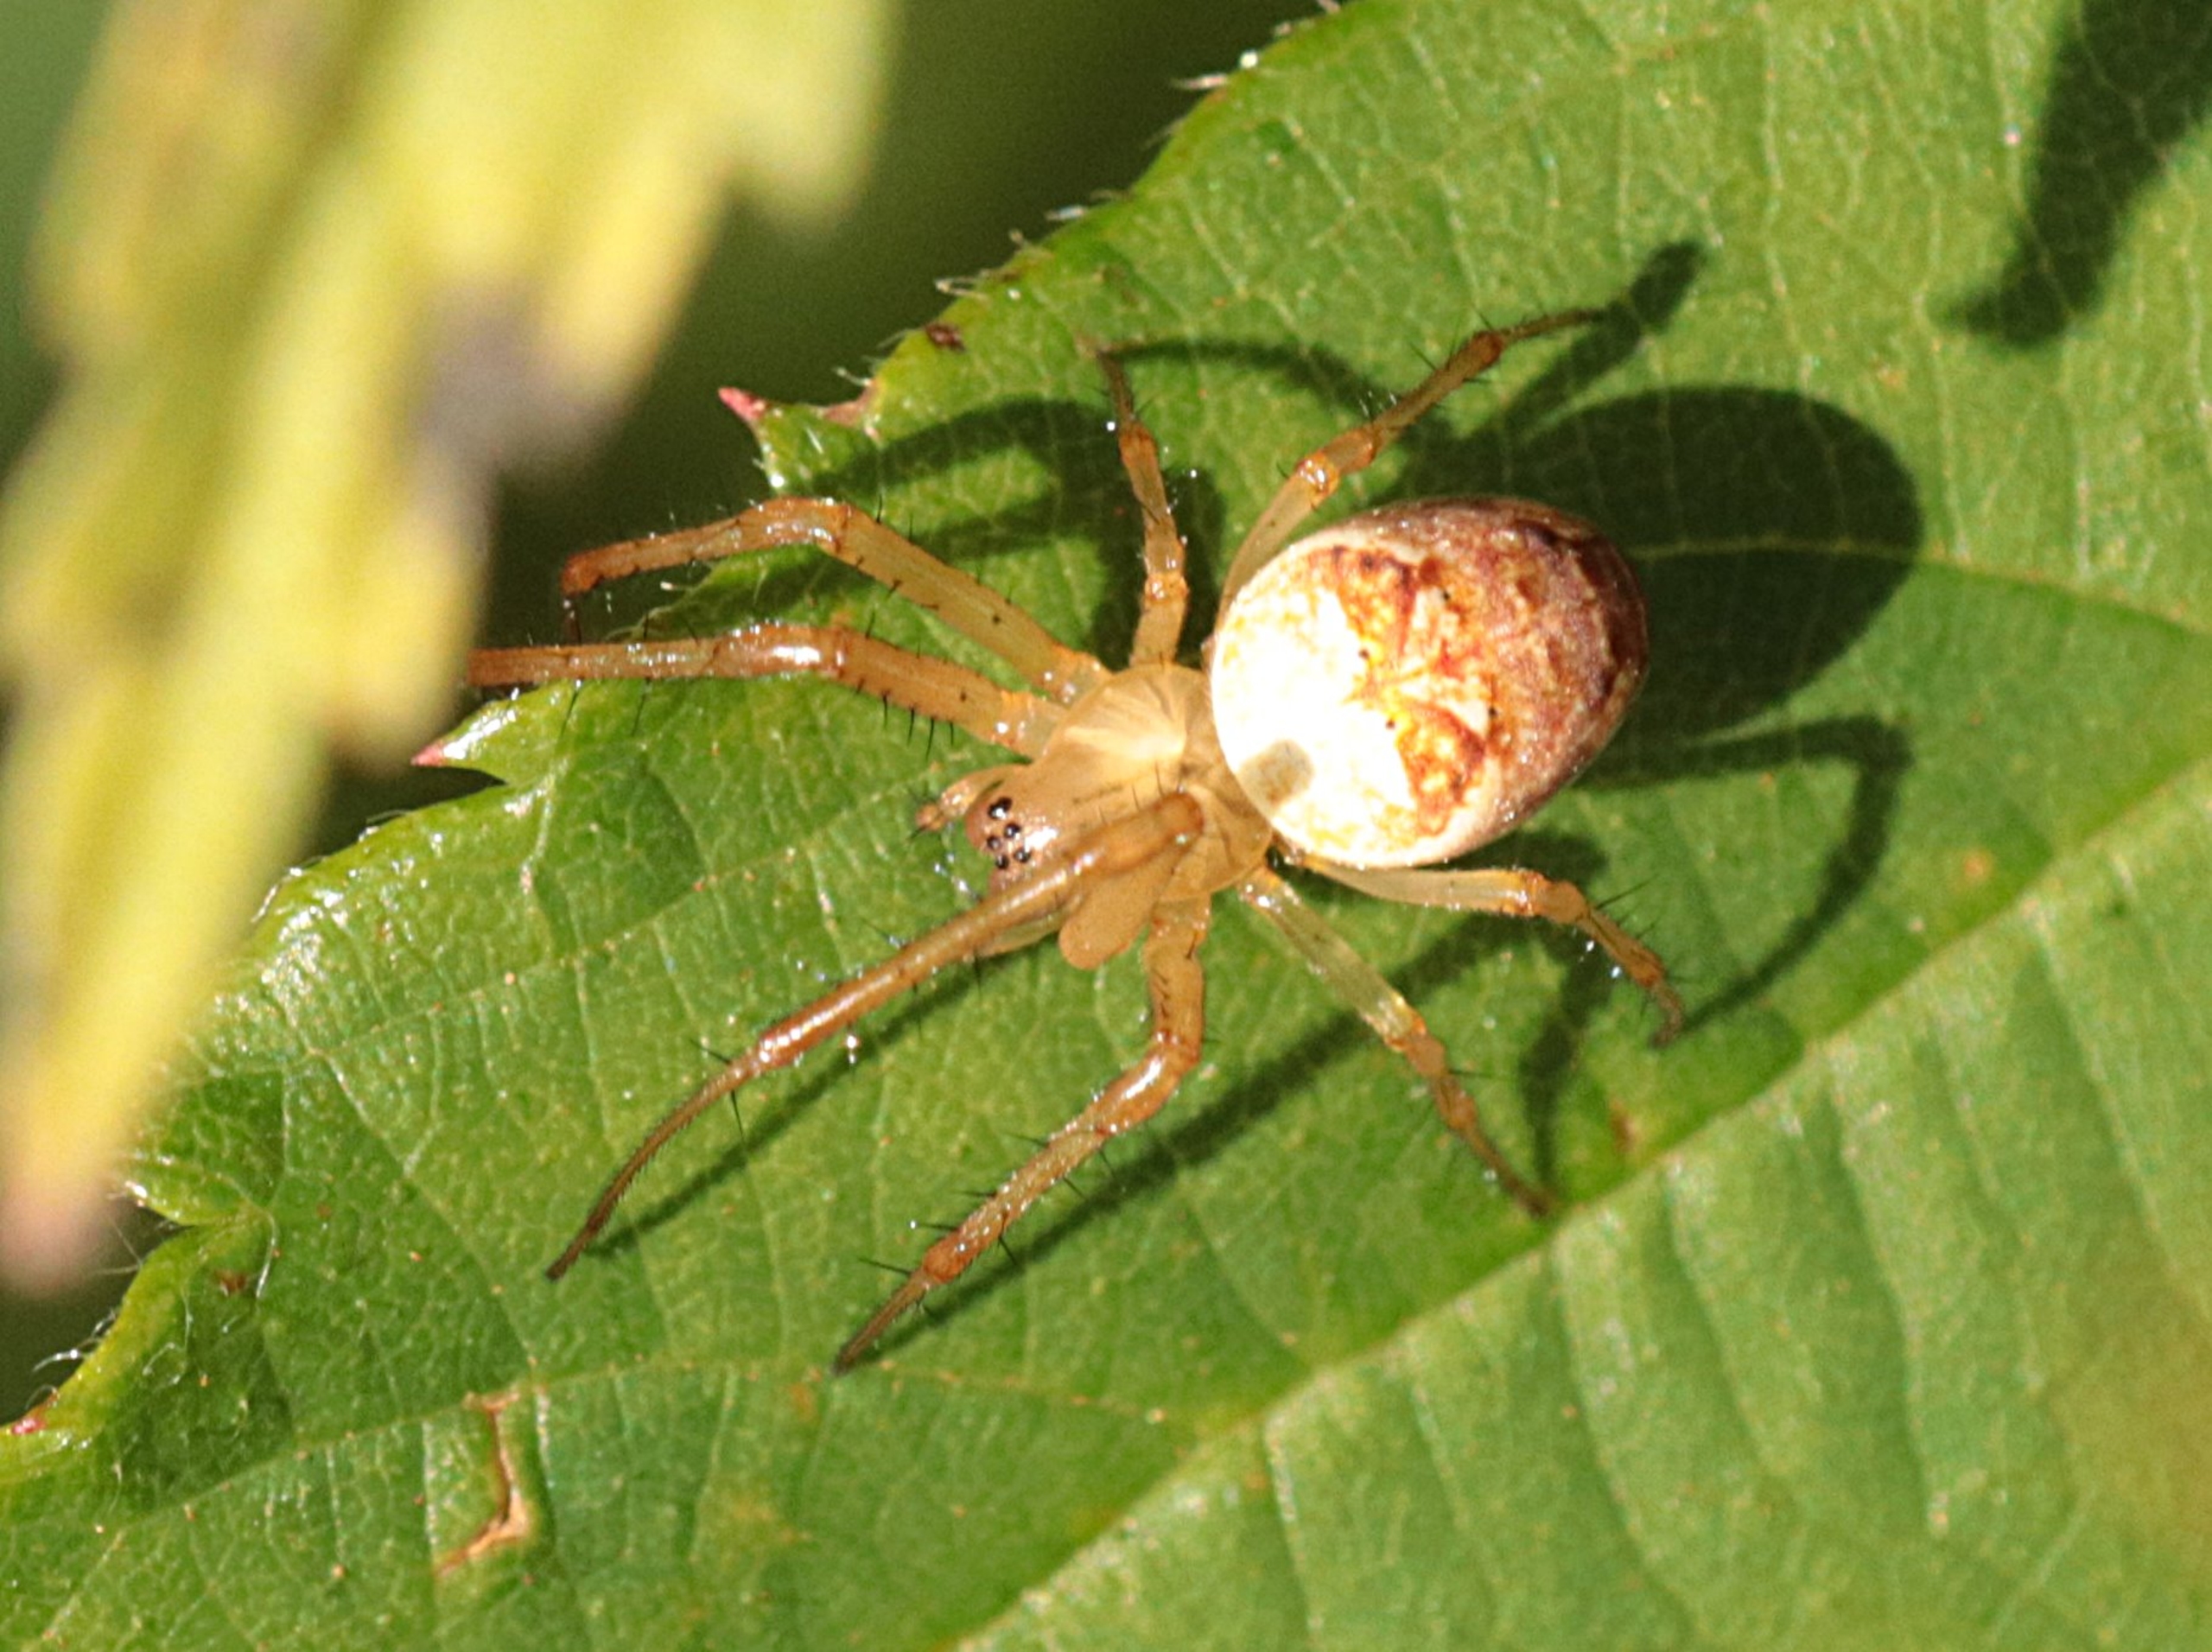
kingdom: Animalia
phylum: Arthropoda
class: Arachnida
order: Araneae
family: Tetragnathidae
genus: Metellina
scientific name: Metellina
